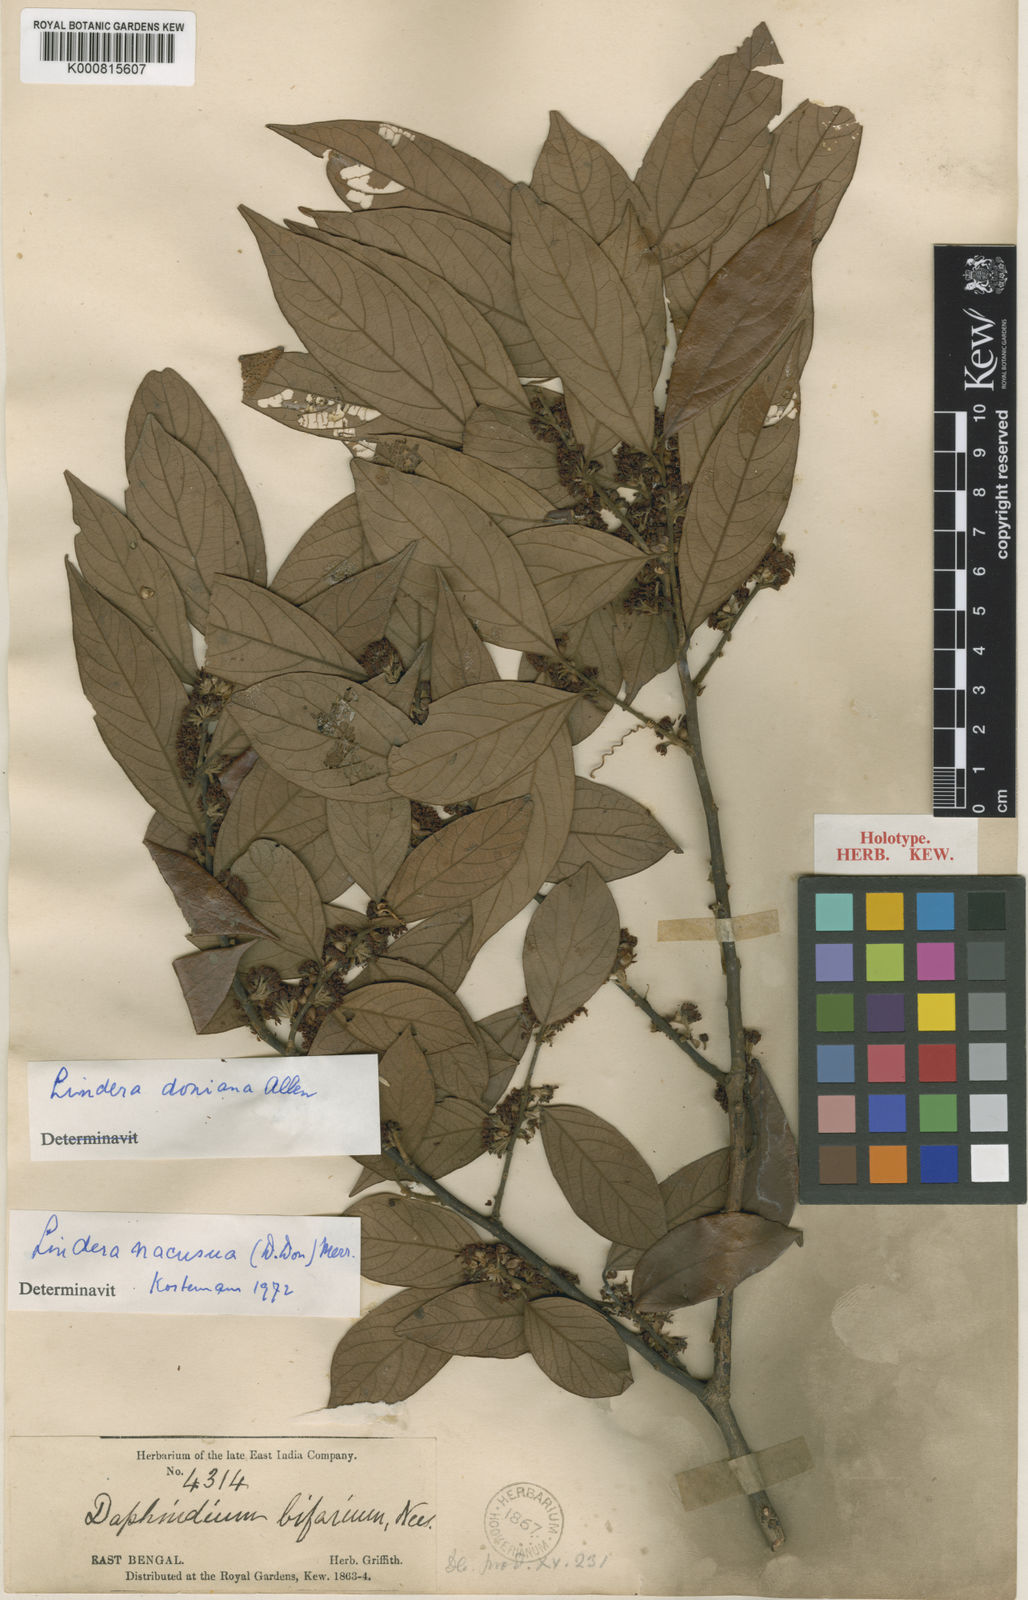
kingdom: Plantae
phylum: Tracheophyta
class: Magnoliopsida
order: Laurales
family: Lauraceae
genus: Lindera
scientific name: Lindera nacusua
